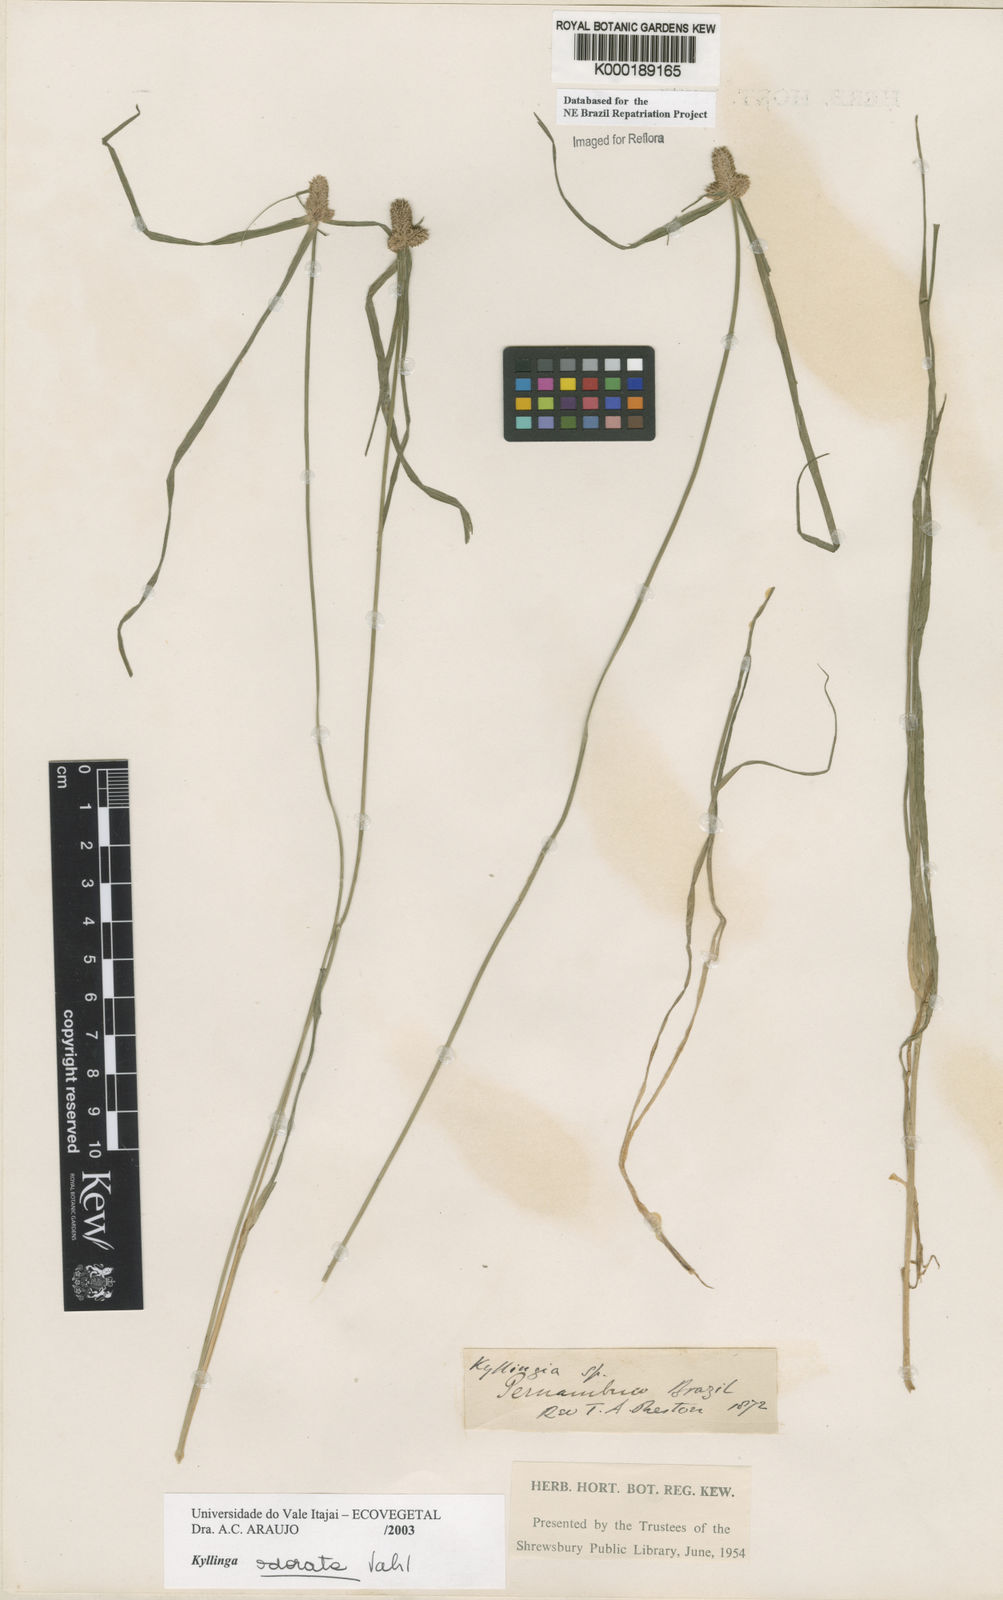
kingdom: Plantae
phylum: Tracheophyta
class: Liliopsida
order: Poales
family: Cyperaceae
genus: Cyperus
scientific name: Cyperus sesquiflorus
